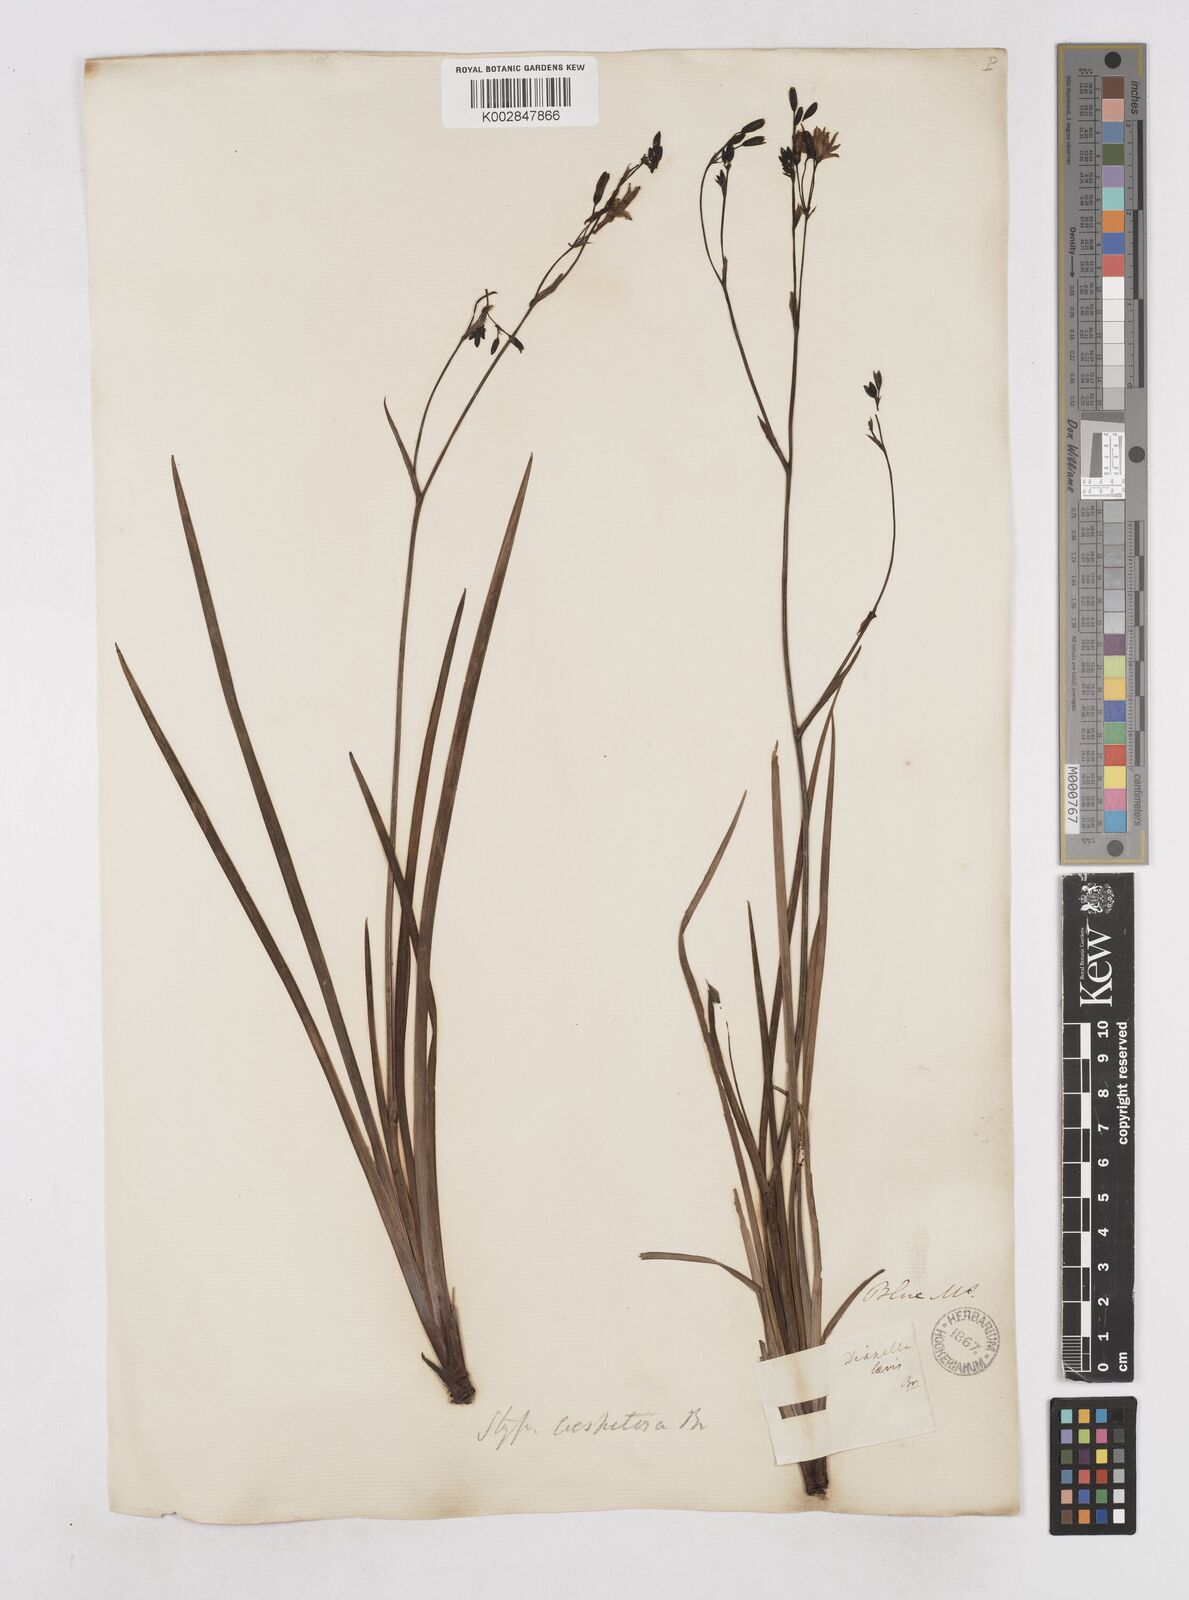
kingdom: Plantae
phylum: Tracheophyta
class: Liliopsida
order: Asparagales
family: Asphodelaceae
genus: Thelionema
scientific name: Thelionema caespitosum
